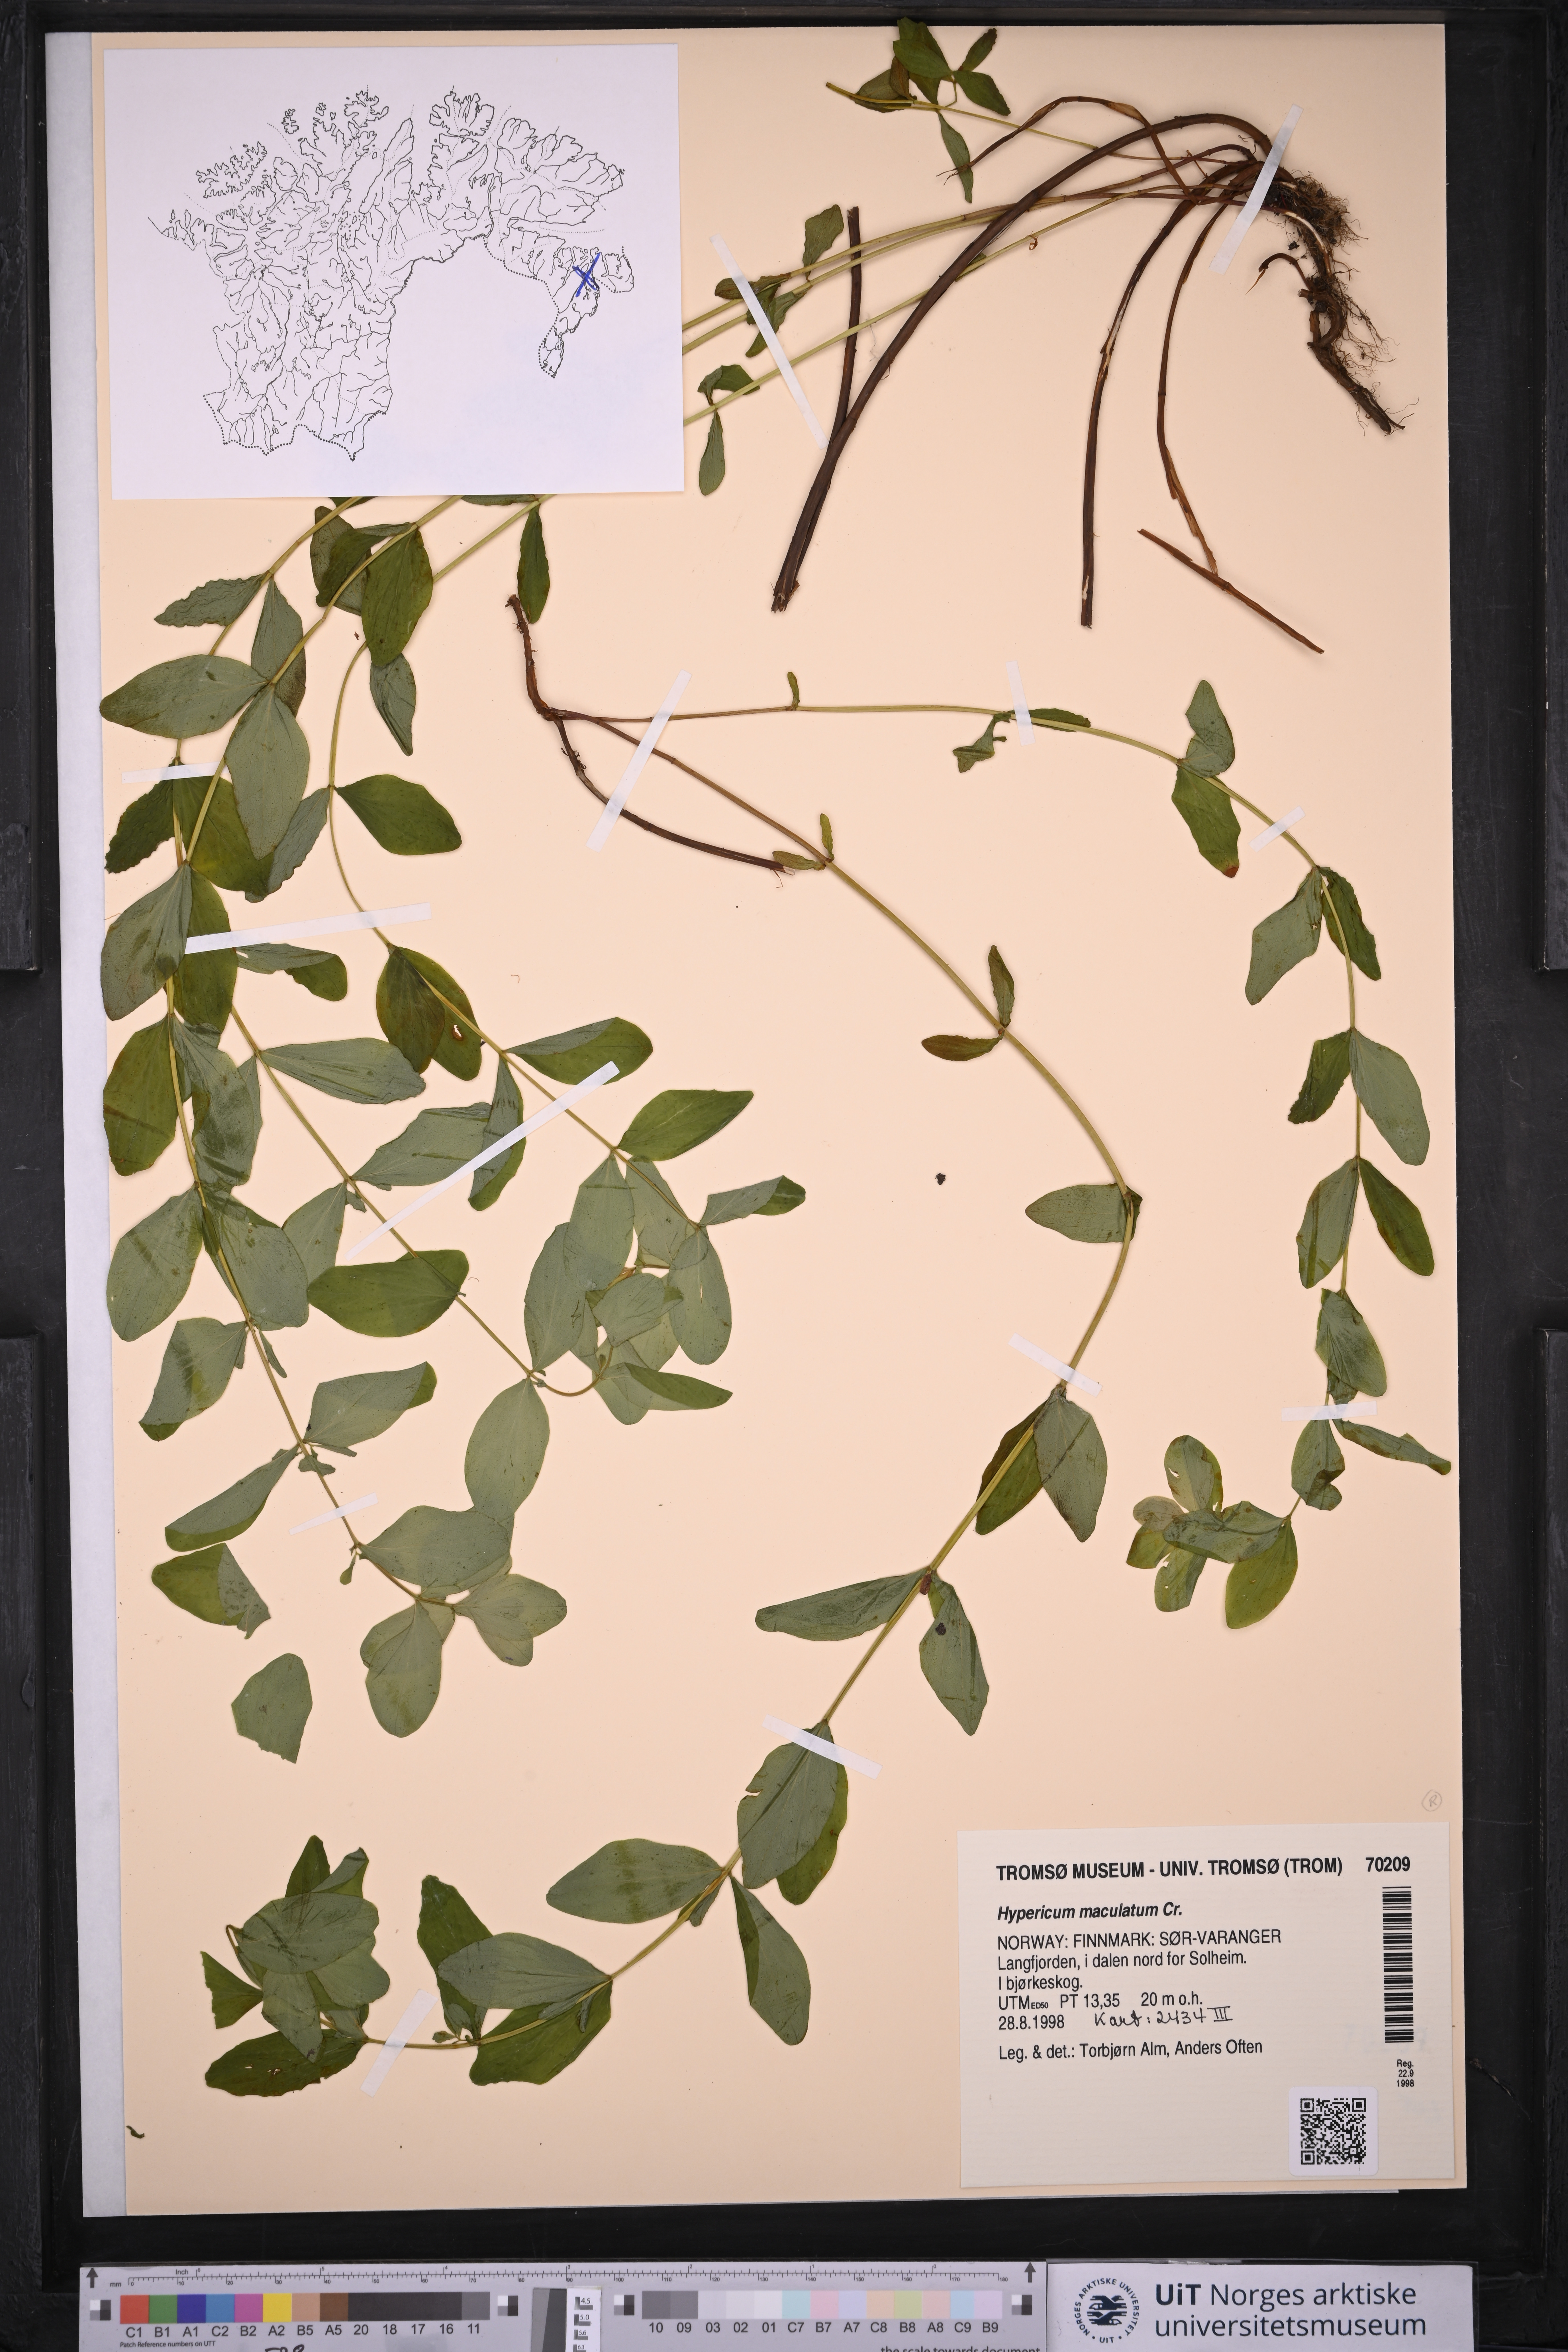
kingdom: Plantae
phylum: Tracheophyta
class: Magnoliopsida
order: Malpighiales
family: Hypericaceae
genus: Hypericum
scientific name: Hypericum maculatum
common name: Imperforate st. john's-wort
